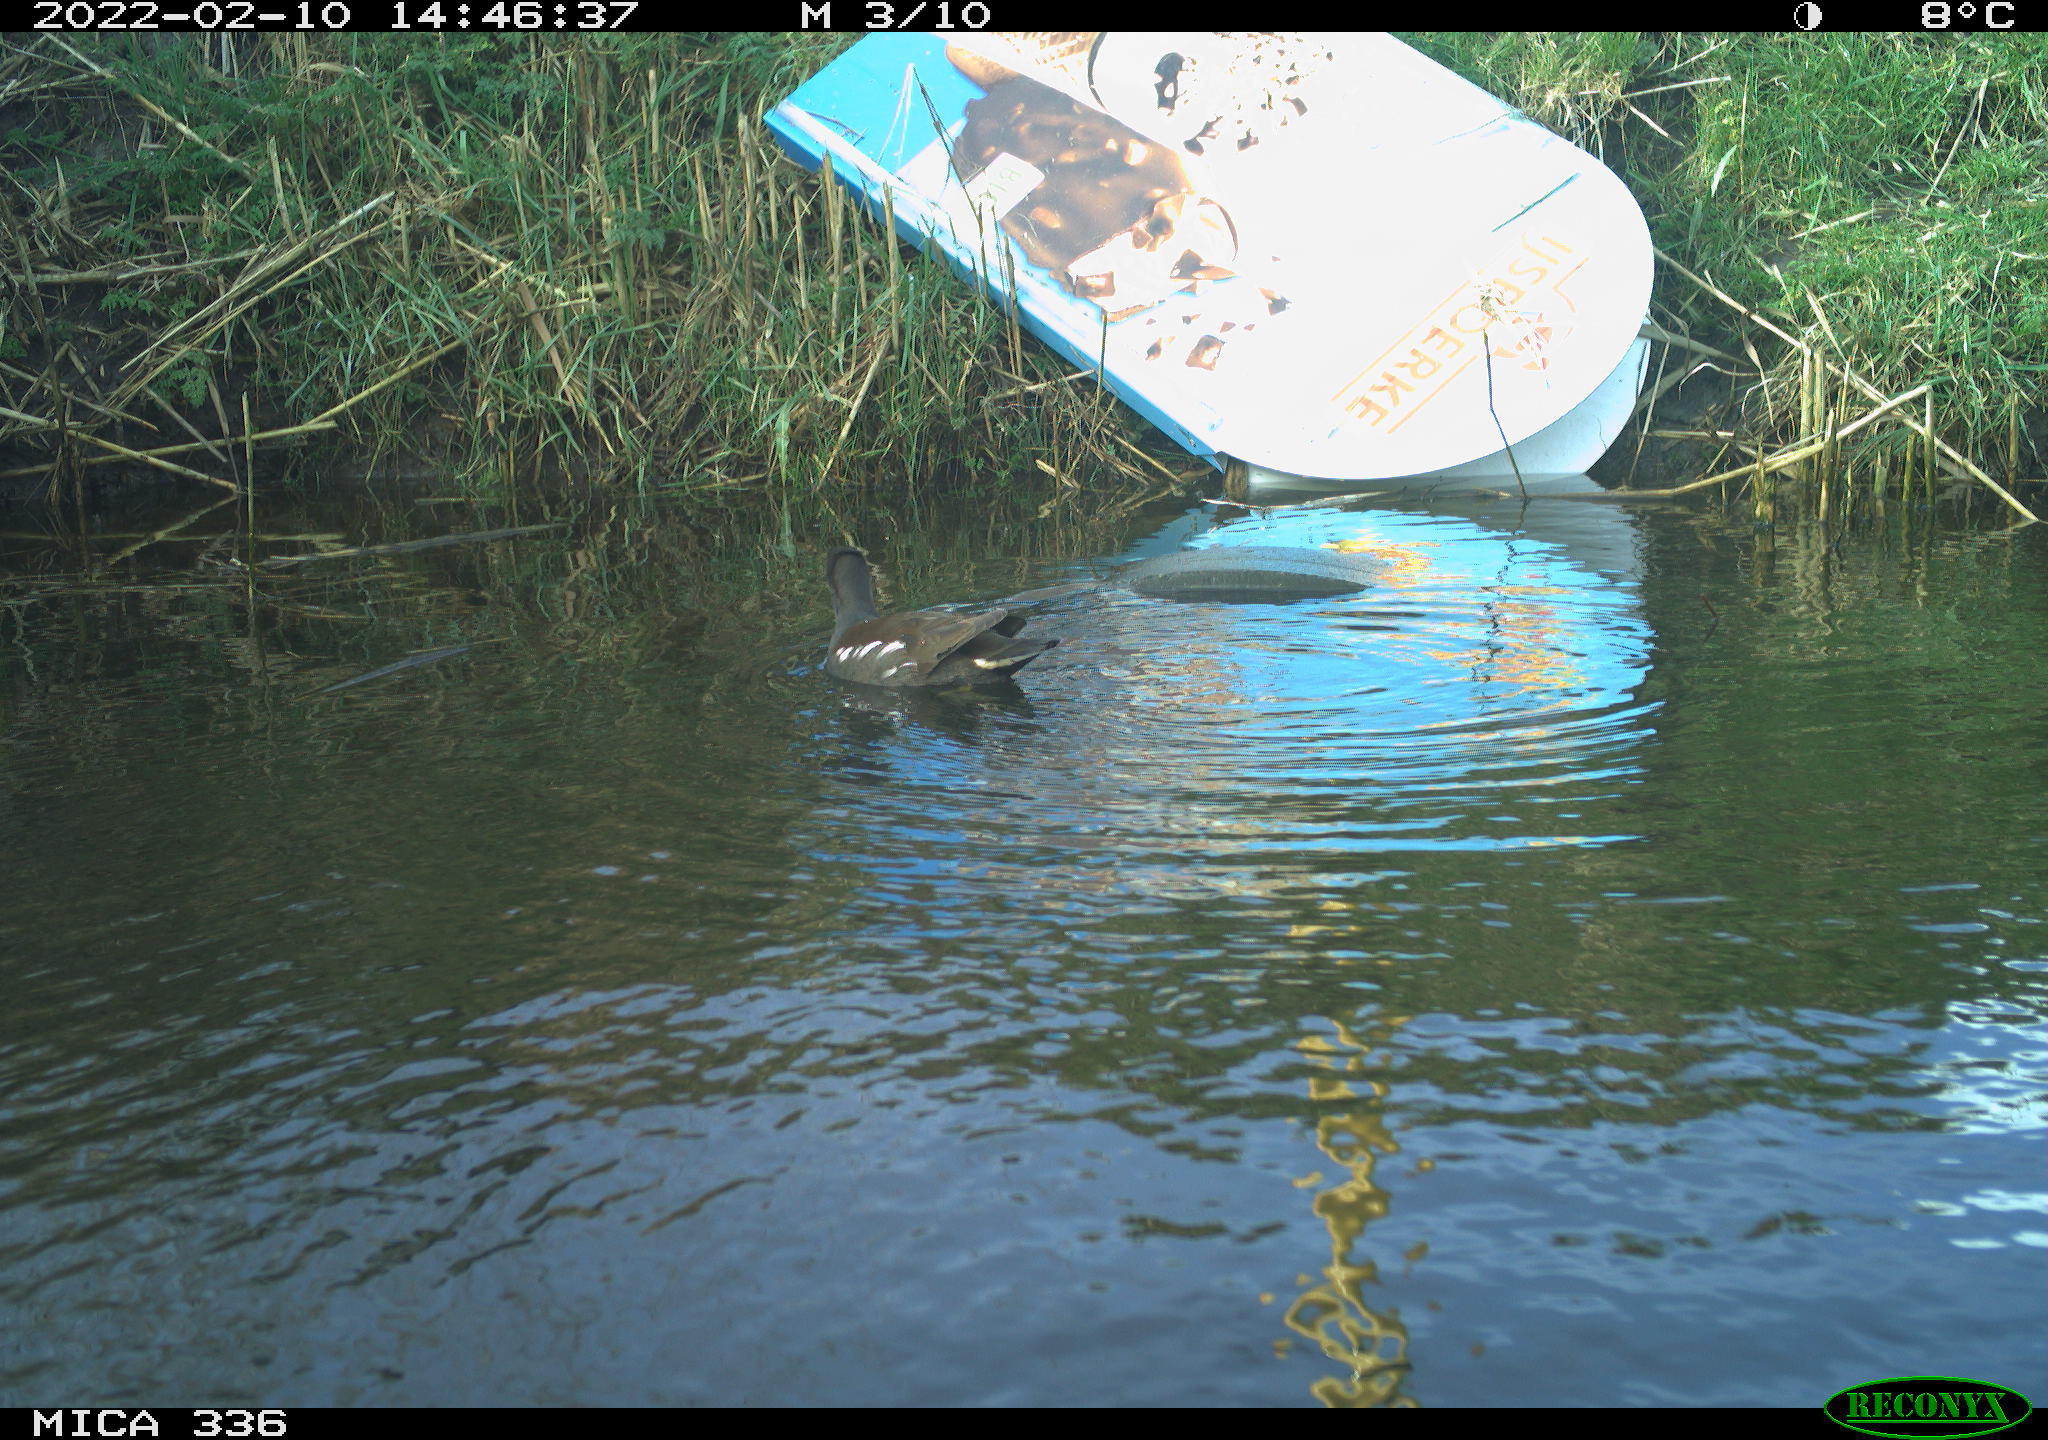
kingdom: Animalia
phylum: Chordata
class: Aves
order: Gruiformes
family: Rallidae
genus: Gallinula
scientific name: Gallinula chloropus
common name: Common moorhen
